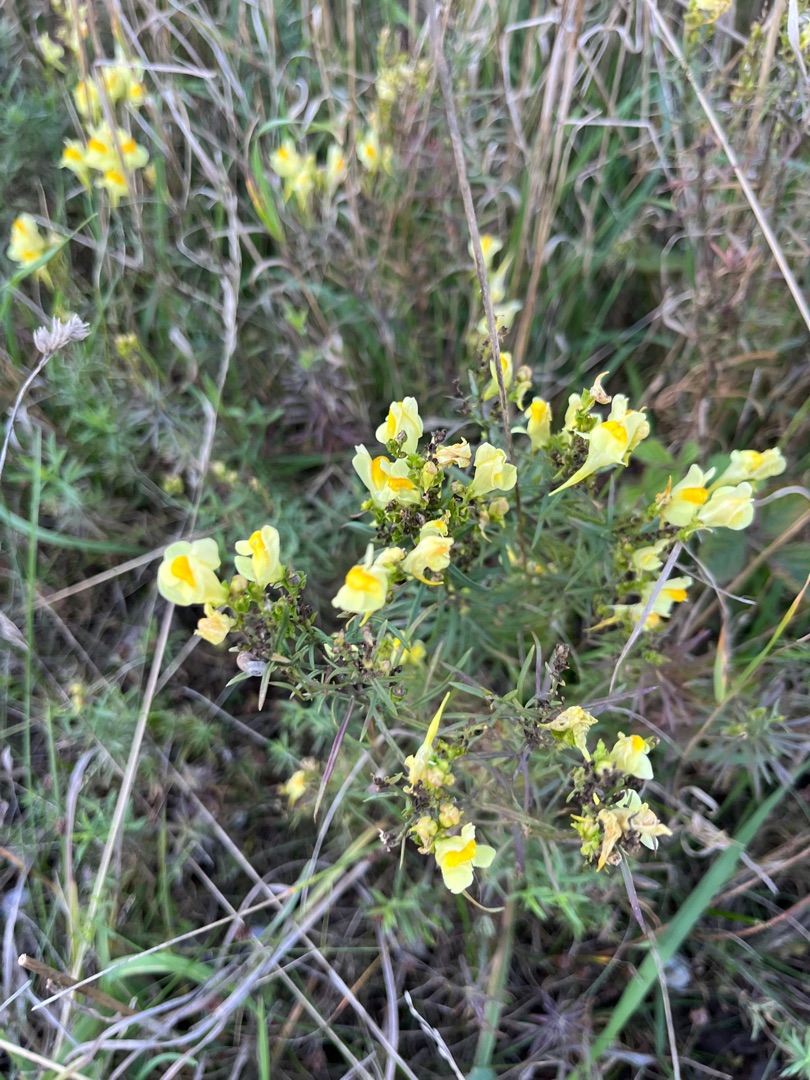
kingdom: Plantae
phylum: Tracheophyta
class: Magnoliopsida
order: Lamiales
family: Plantaginaceae
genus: Linaria
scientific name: Linaria vulgaris
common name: Almindelig torskemund
